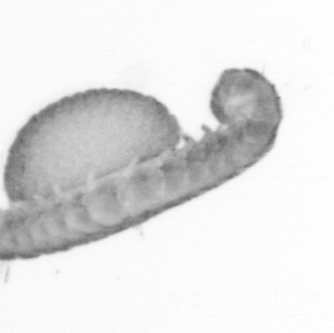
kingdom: Animalia
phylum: Annelida
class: Polychaeta
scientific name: Polychaeta
